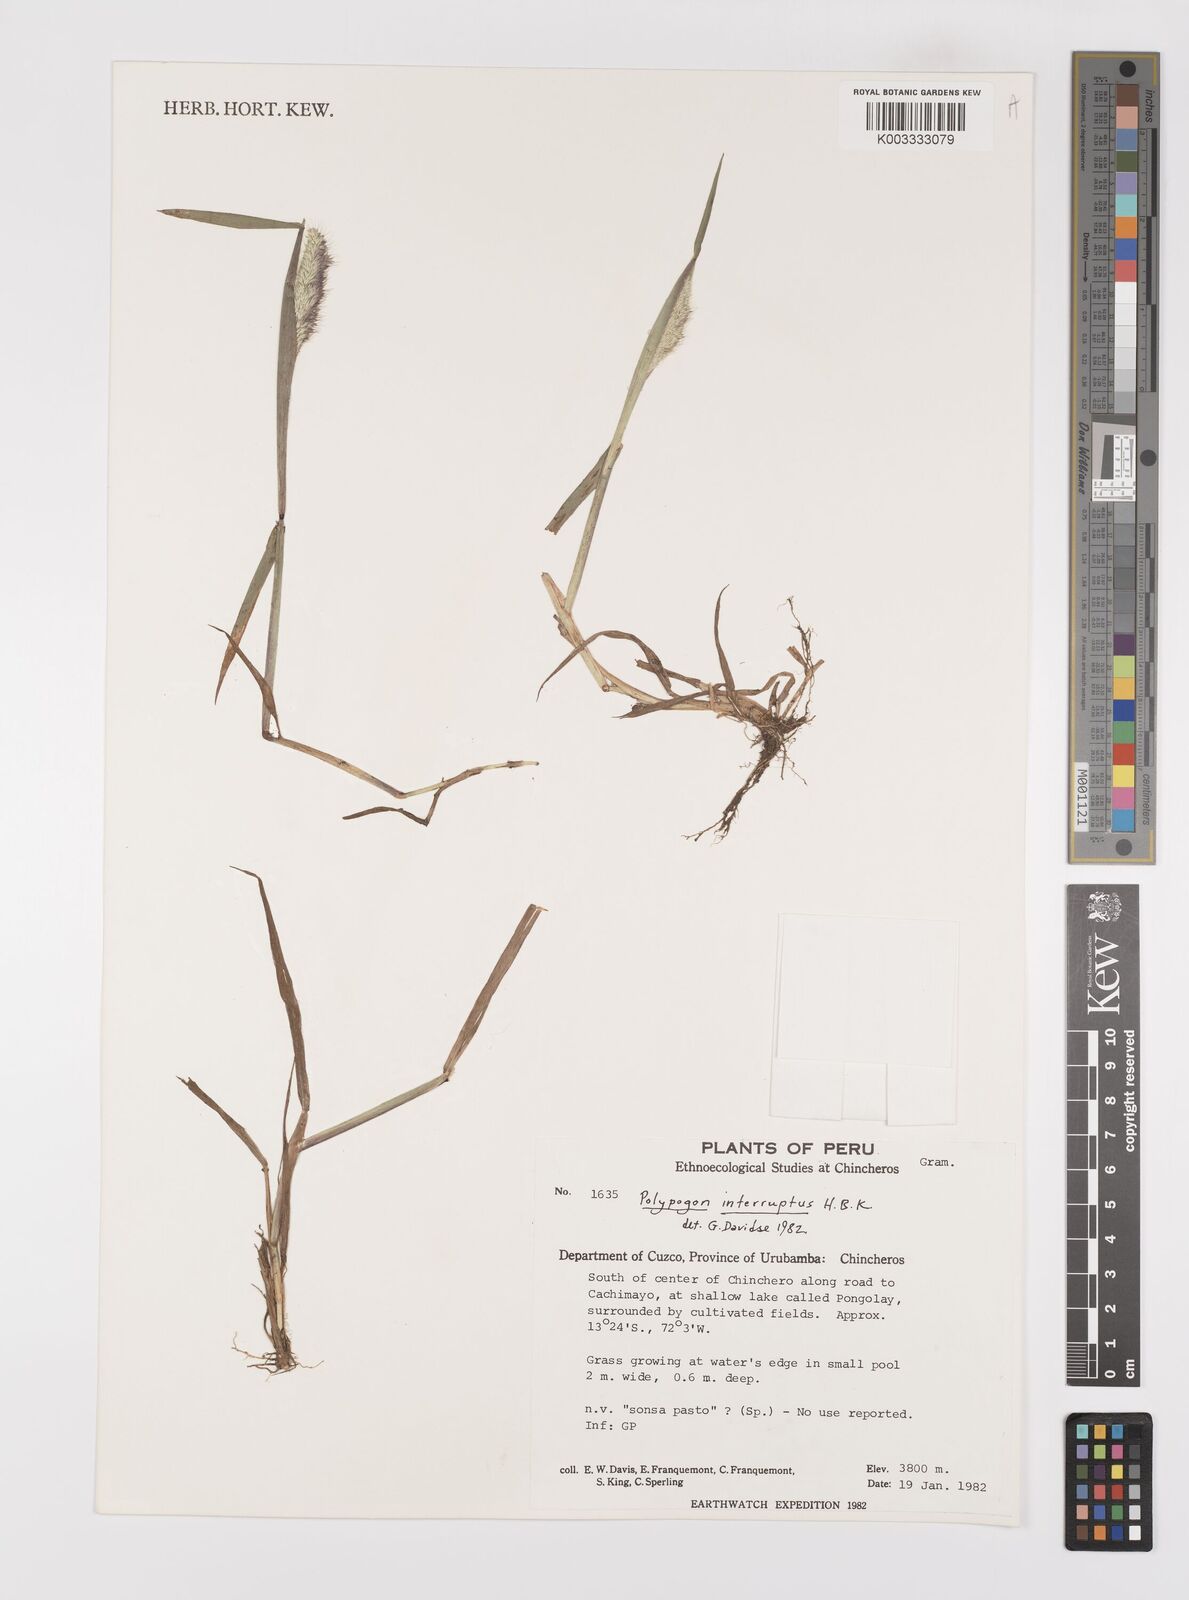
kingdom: Plantae
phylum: Tracheophyta
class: Liliopsida
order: Poales
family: Poaceae
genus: Polypogon
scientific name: Polypogon interruptus
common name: Ditch polypogon
